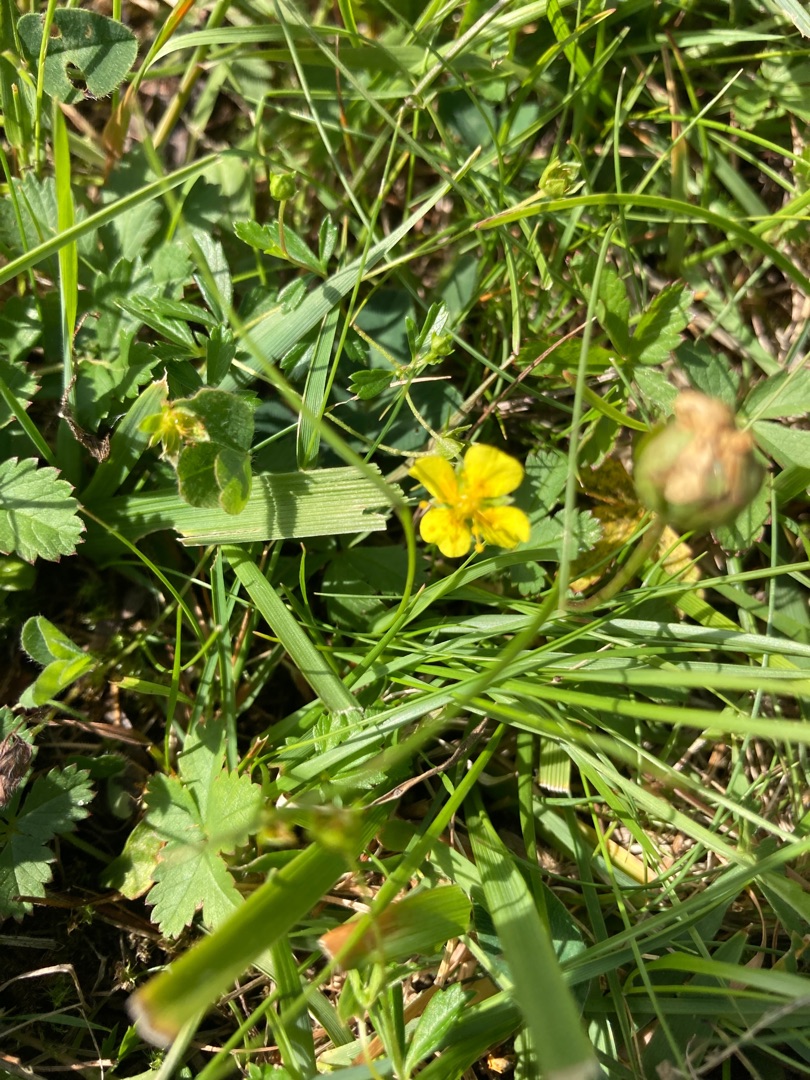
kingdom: Plantae
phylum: Tracheophyta
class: Magnoliopsida
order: Rosales
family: Rosaceae
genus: Potentilla
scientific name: Potentilla erecta
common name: Tormentil
